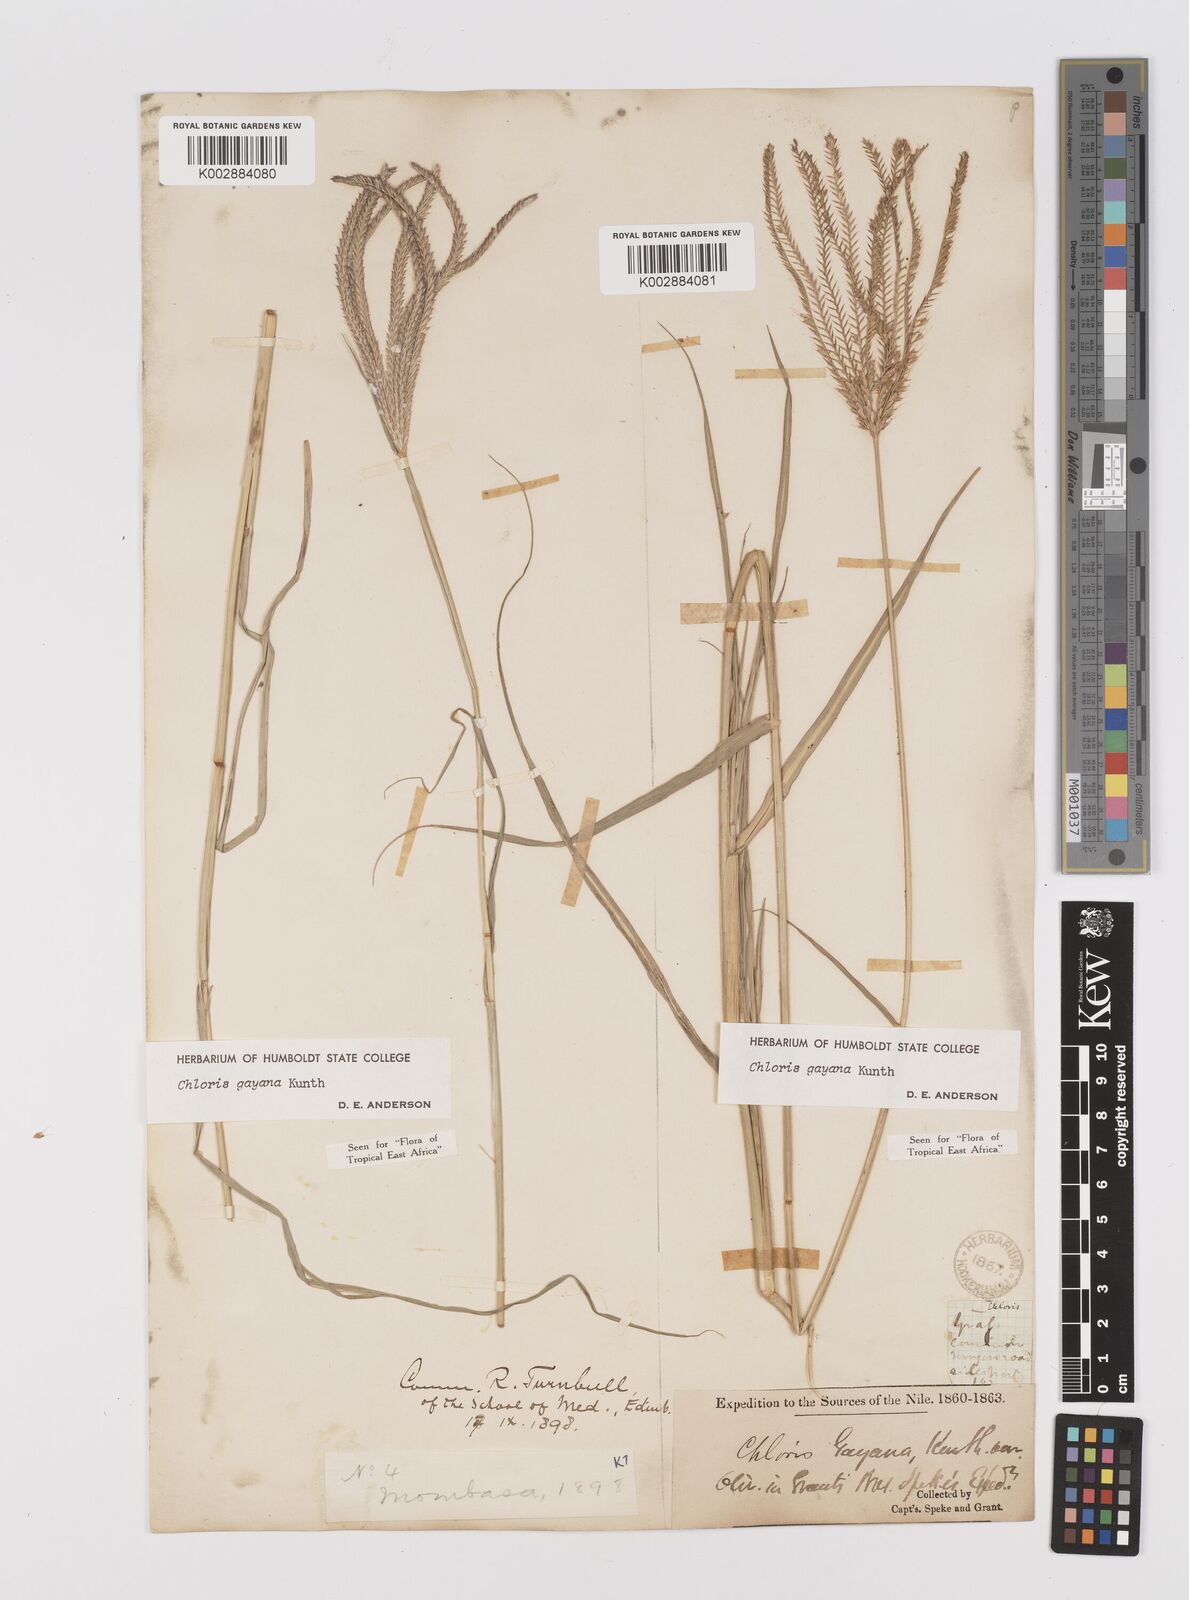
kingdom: Plantae
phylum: Tracheophyta
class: Liliopsida
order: Poales
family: Poaceae
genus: Chloris
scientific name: Chloris gayana
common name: Rhodes grass
